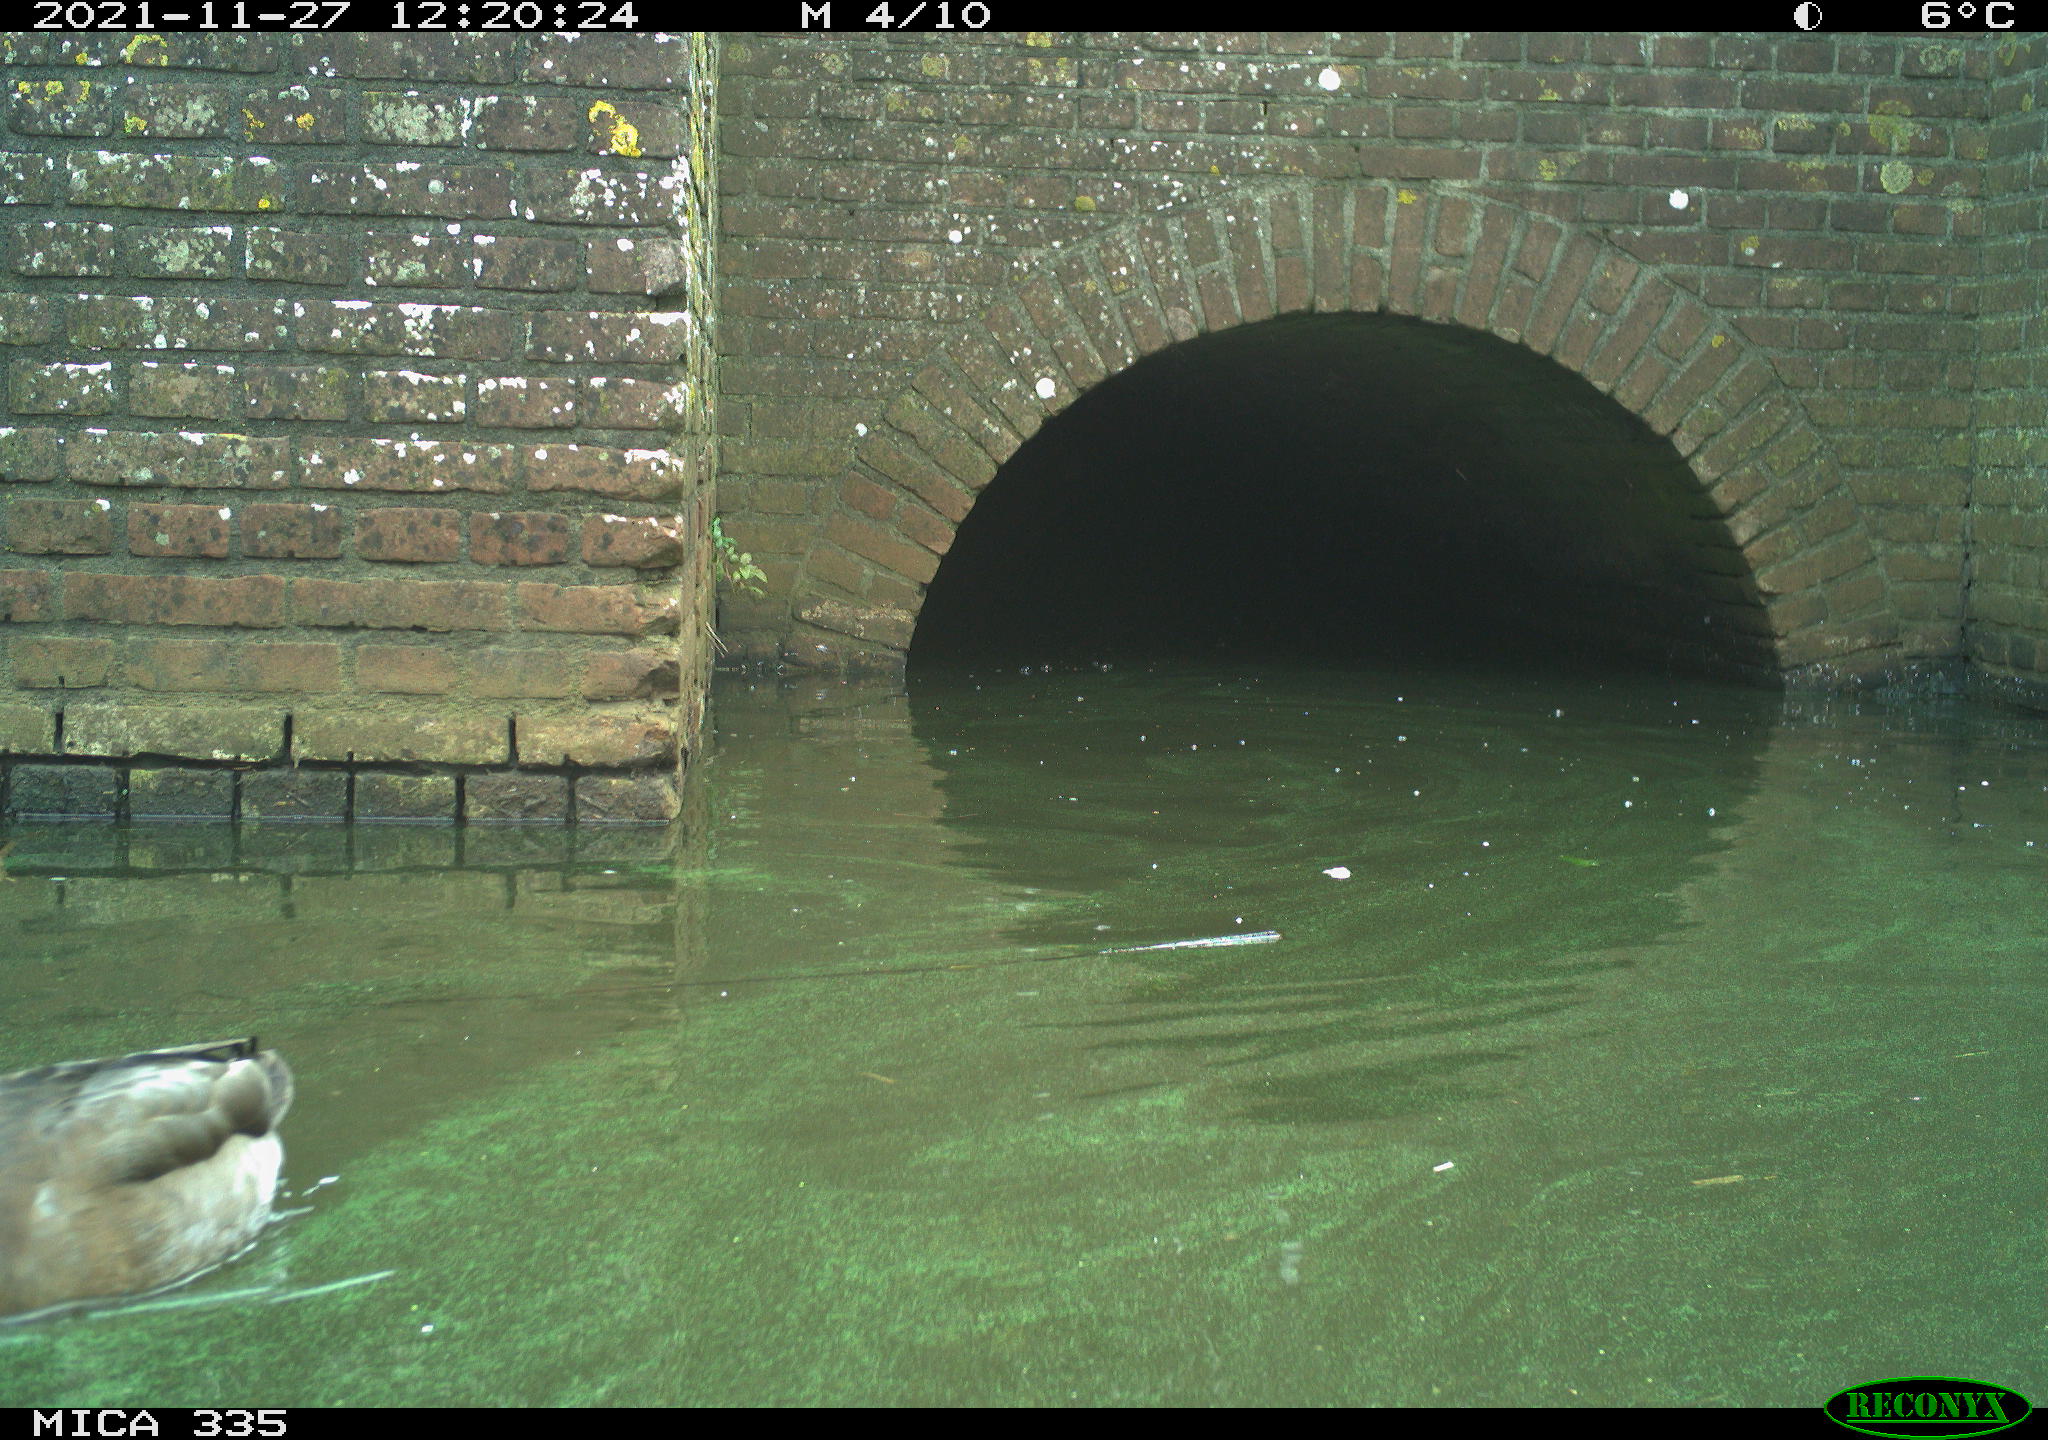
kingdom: Animalia
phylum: Chordata
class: Aves
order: Anseriformes
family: Anatidae
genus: Anas
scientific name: Anas platyrhynchos
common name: Mallard
